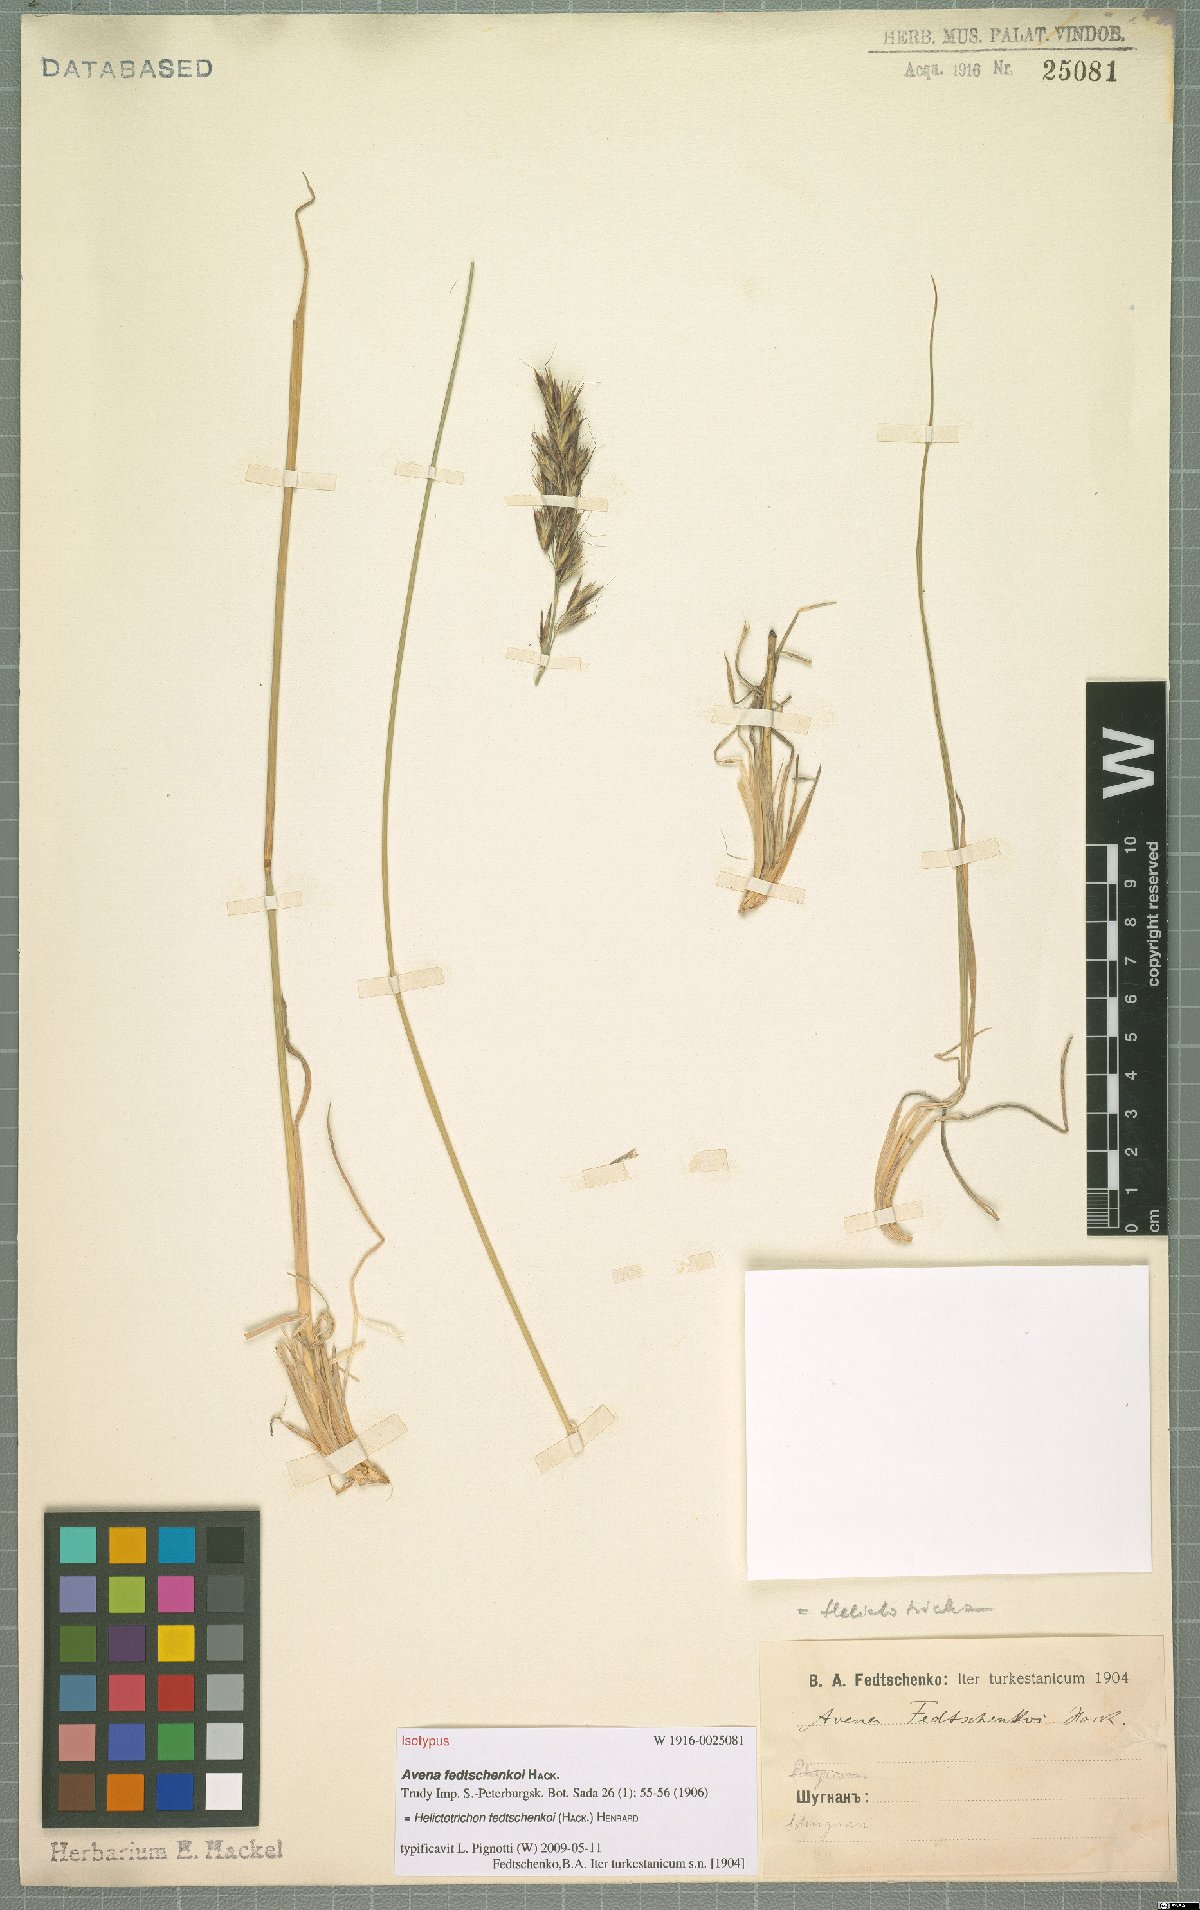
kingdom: Plantae
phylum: Tracheophyta
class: Liliopsida
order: Poales
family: Poaceae
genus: Helictotrichon
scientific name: Helictotrichon fedtschenkoi
